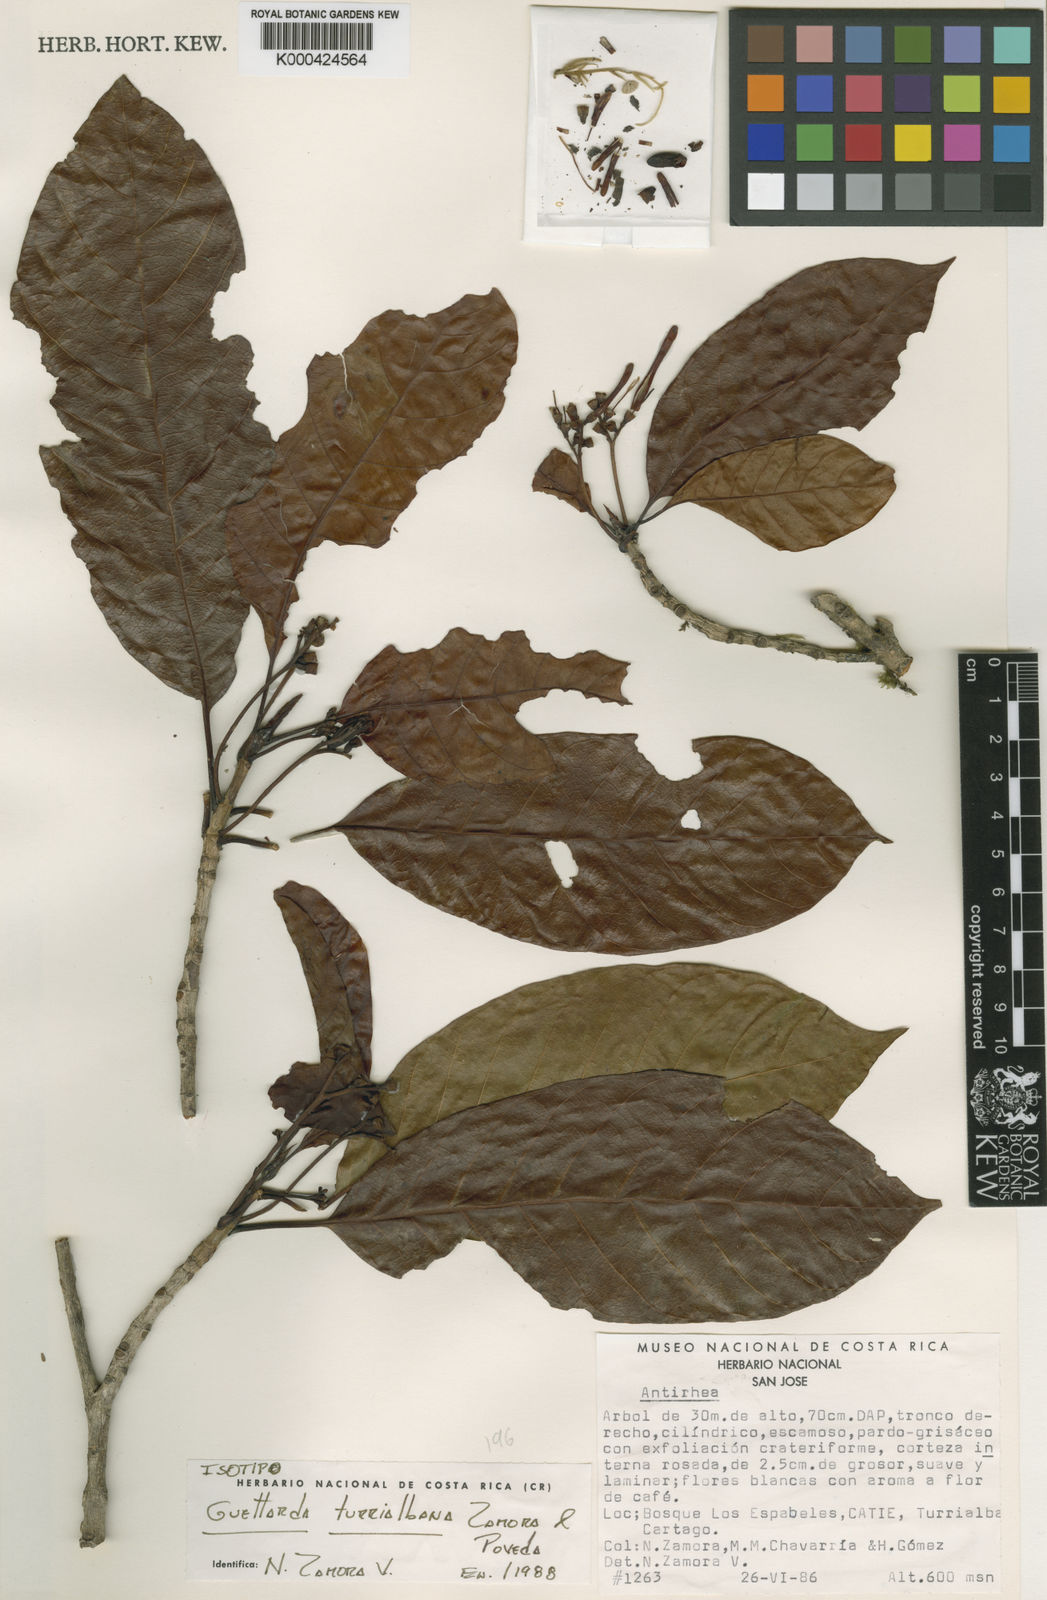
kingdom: Plantae
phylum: Tracheophyta
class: Magnoliopsida
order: Gentianales
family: Rubiaceae
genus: Stenostomum
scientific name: Stenostomum turrialbanum
